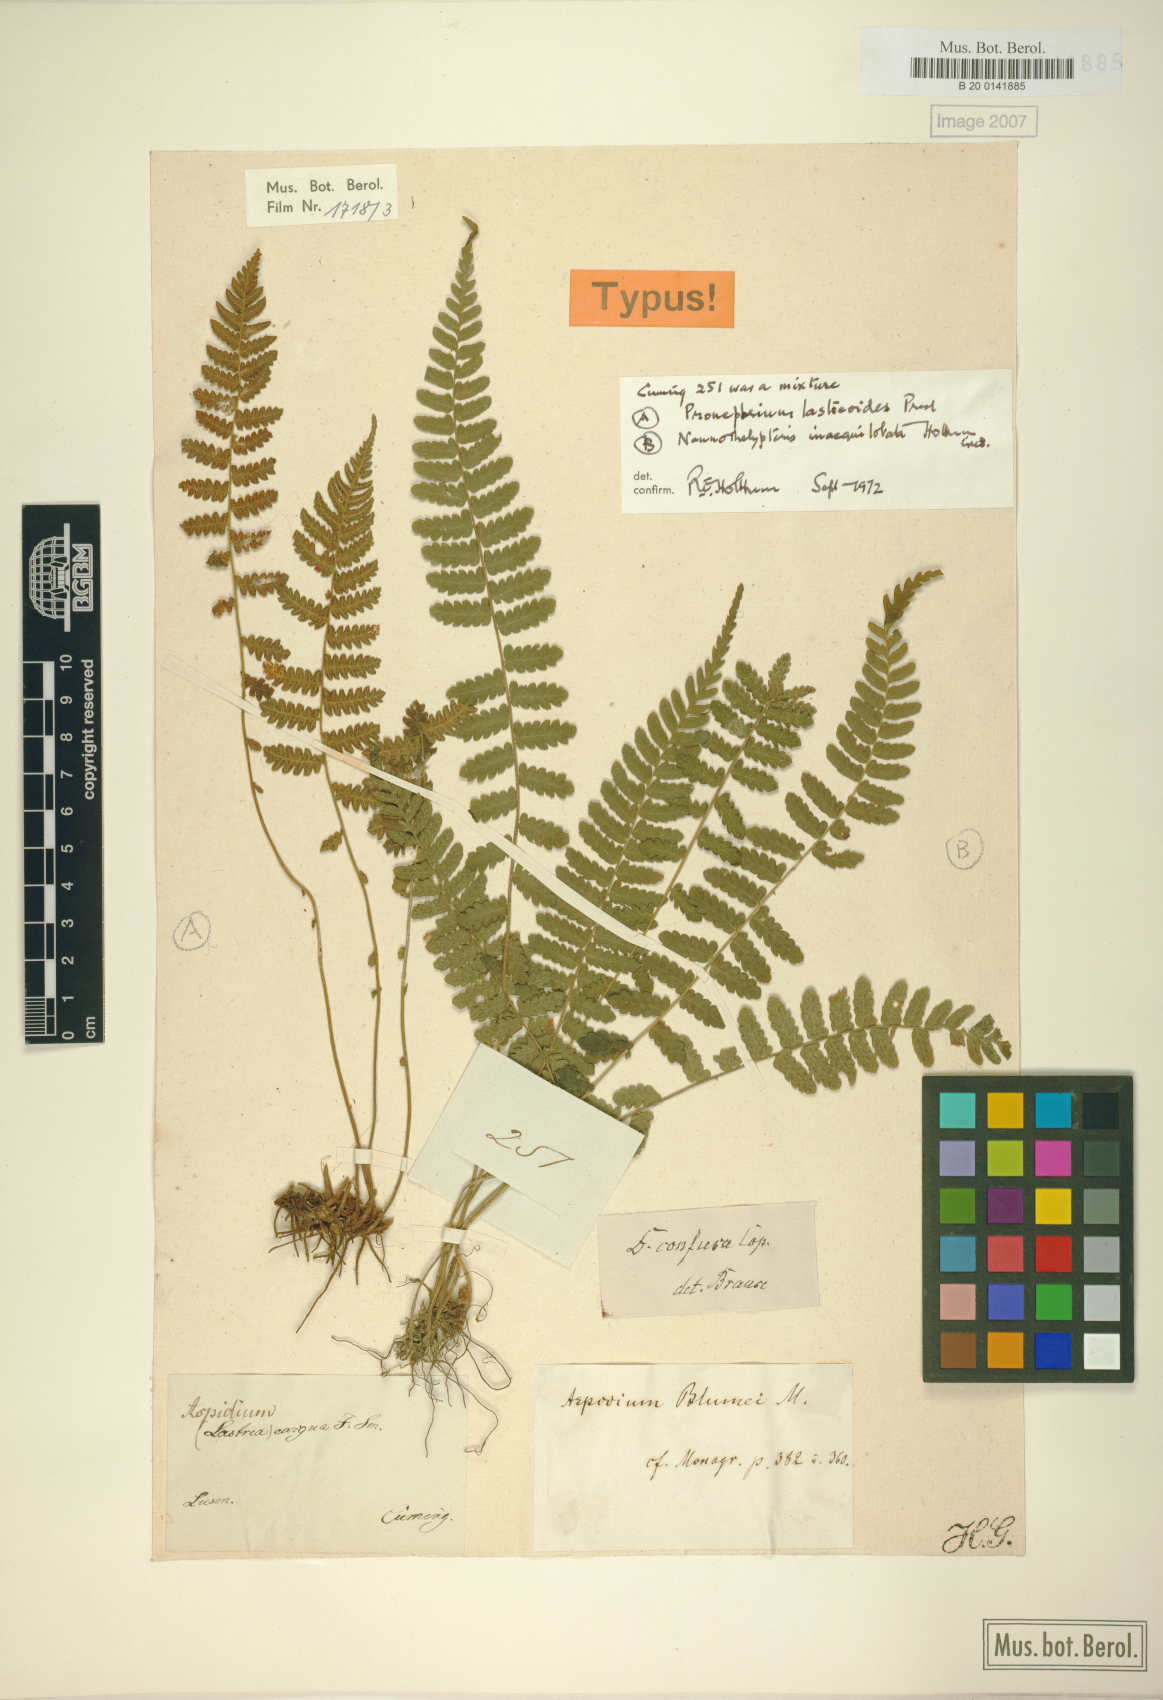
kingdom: Plantae
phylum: Tracheophyta
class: Polypodiopsida
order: Polypodiales
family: Thelypteridaceae
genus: Pronephrium
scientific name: Pronephrium inaequilobatum
